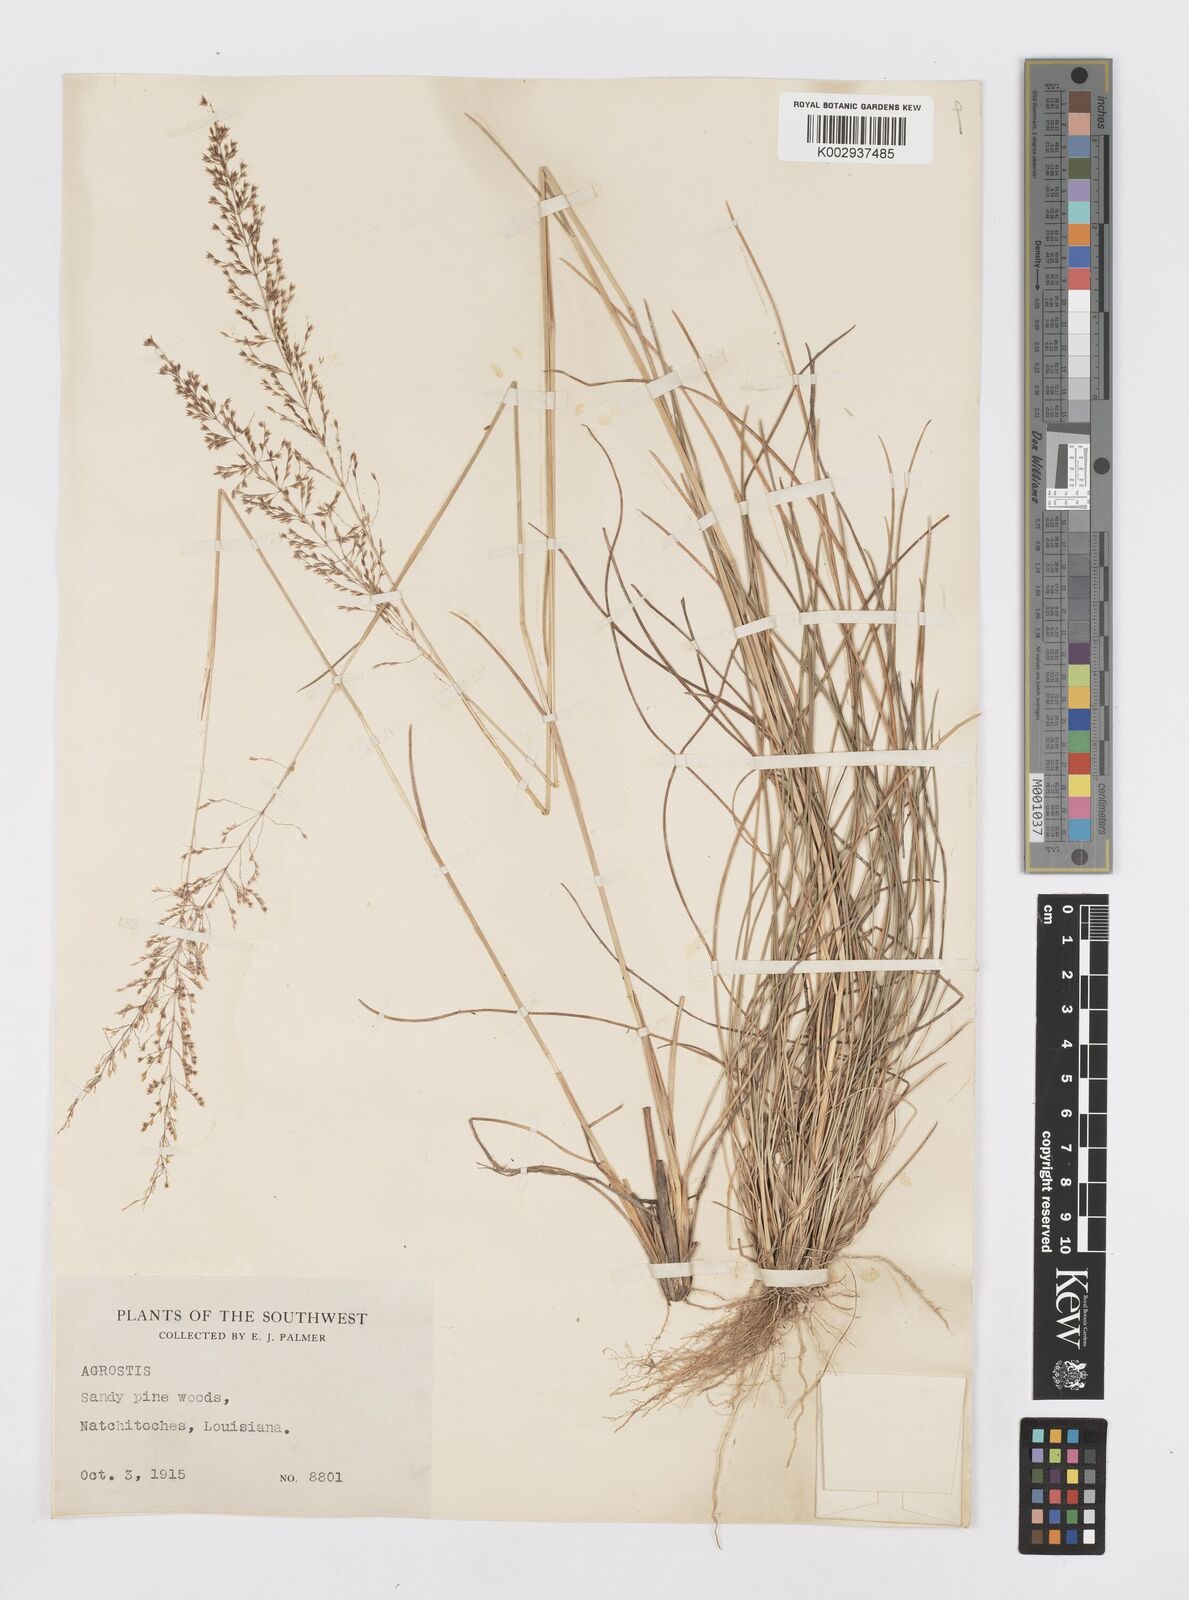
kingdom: Plantae
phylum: Tracheophyta
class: Liliopsida
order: Poales
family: Poaceae
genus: Sporobolus
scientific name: Sporobolus junceus
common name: Lizard grass
